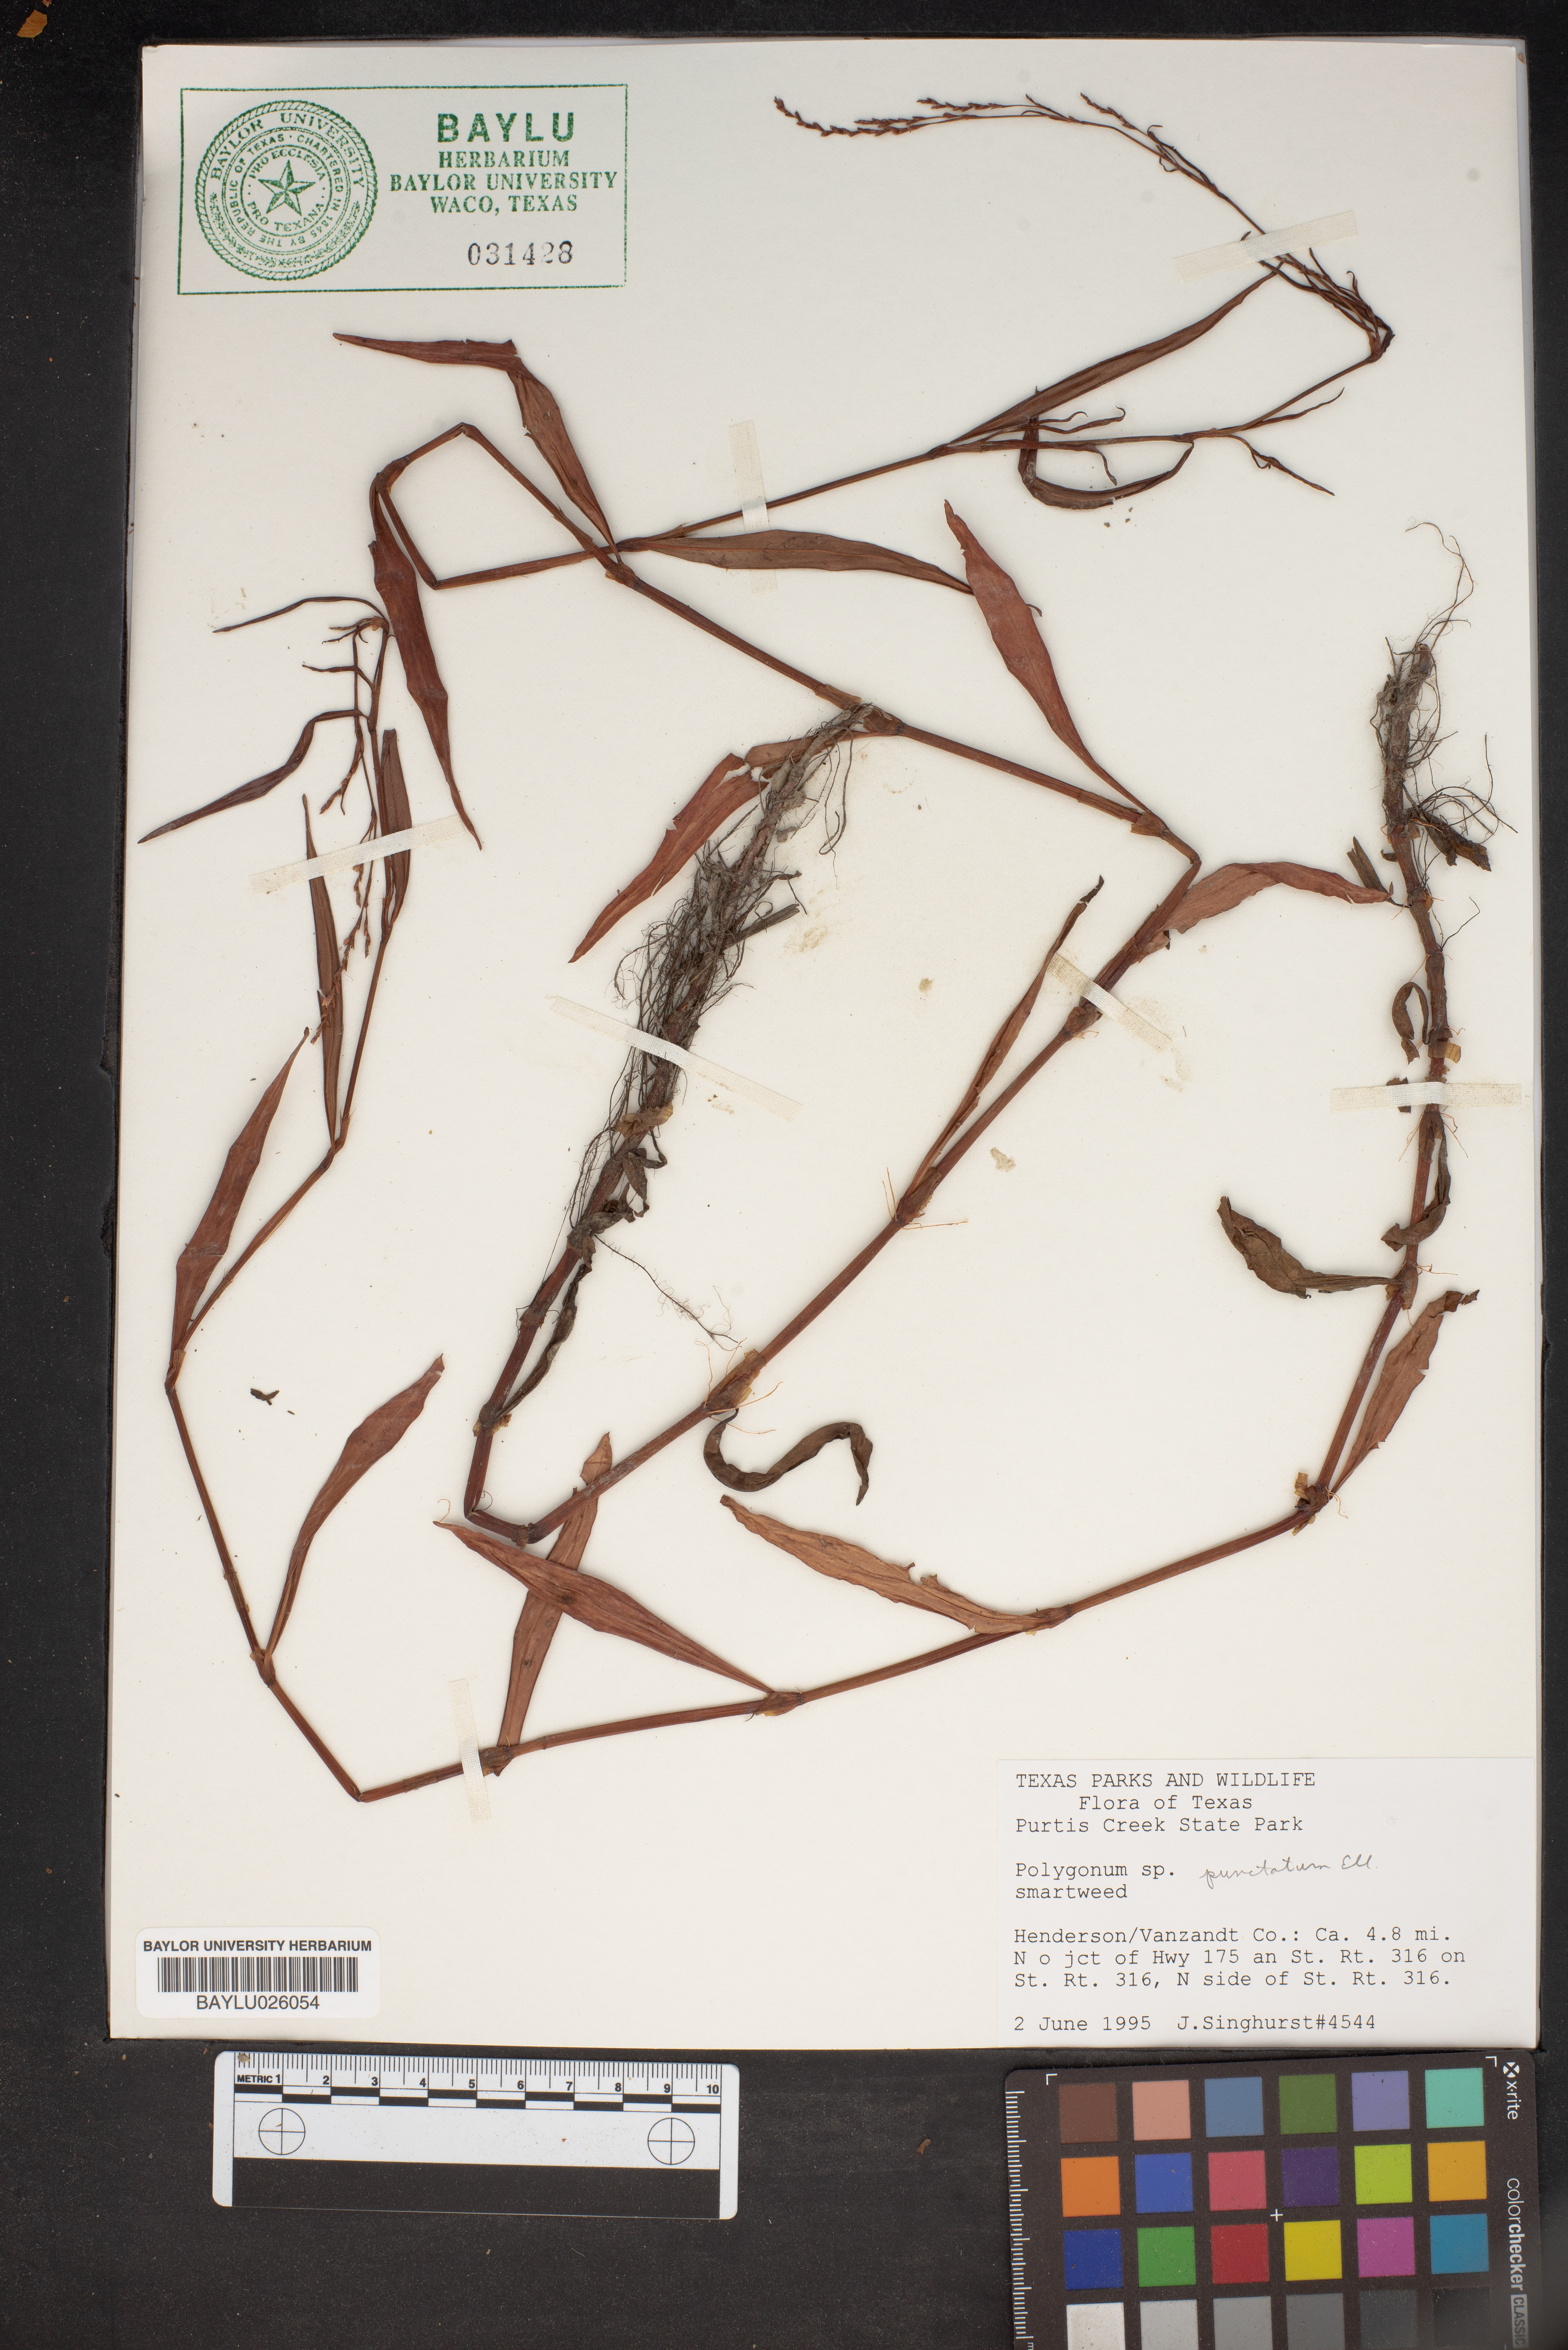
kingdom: Plantae
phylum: Tracheophyta
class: Magnoliopsida
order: Caryophyllales
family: Polygonaceae
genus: Persicaria
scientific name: Persicaria punctata
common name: Dotted smartweed
